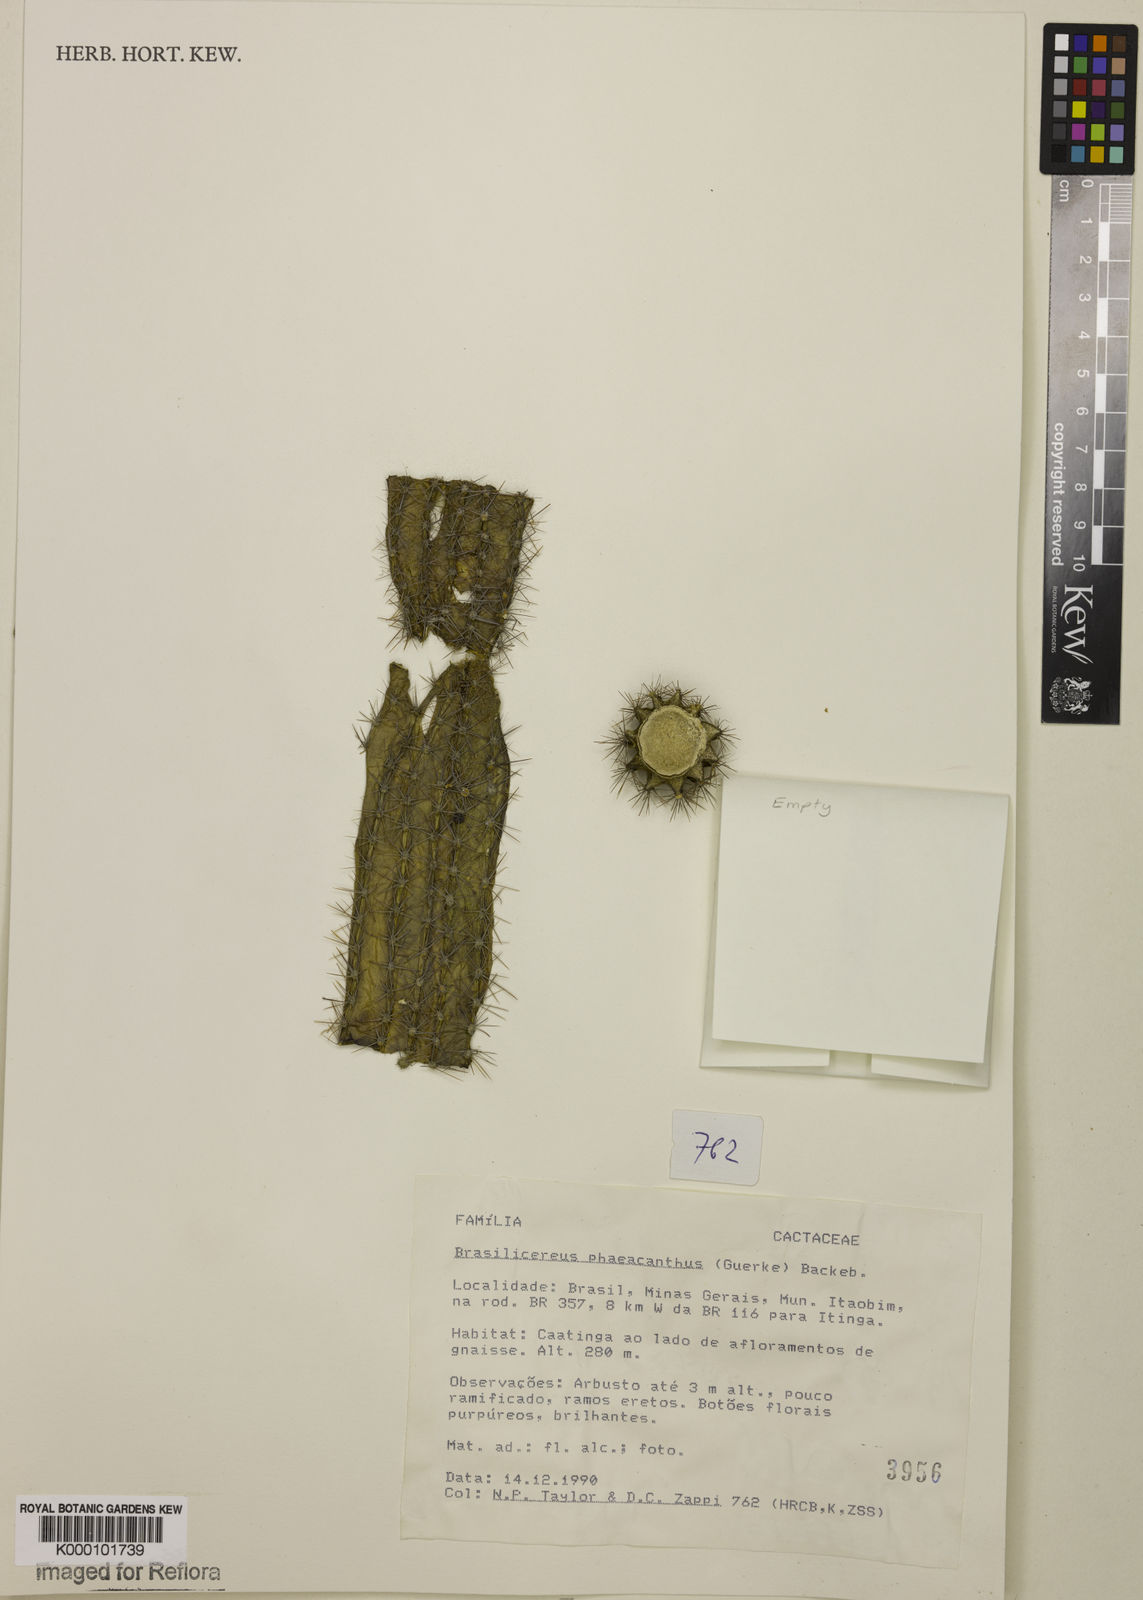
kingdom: Plantae
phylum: Tracheophyta
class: Magnoliopsida
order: Caryophyllales
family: Cactaceae
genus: Brasilicereus
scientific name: Brasilicereus phaeacanthus
